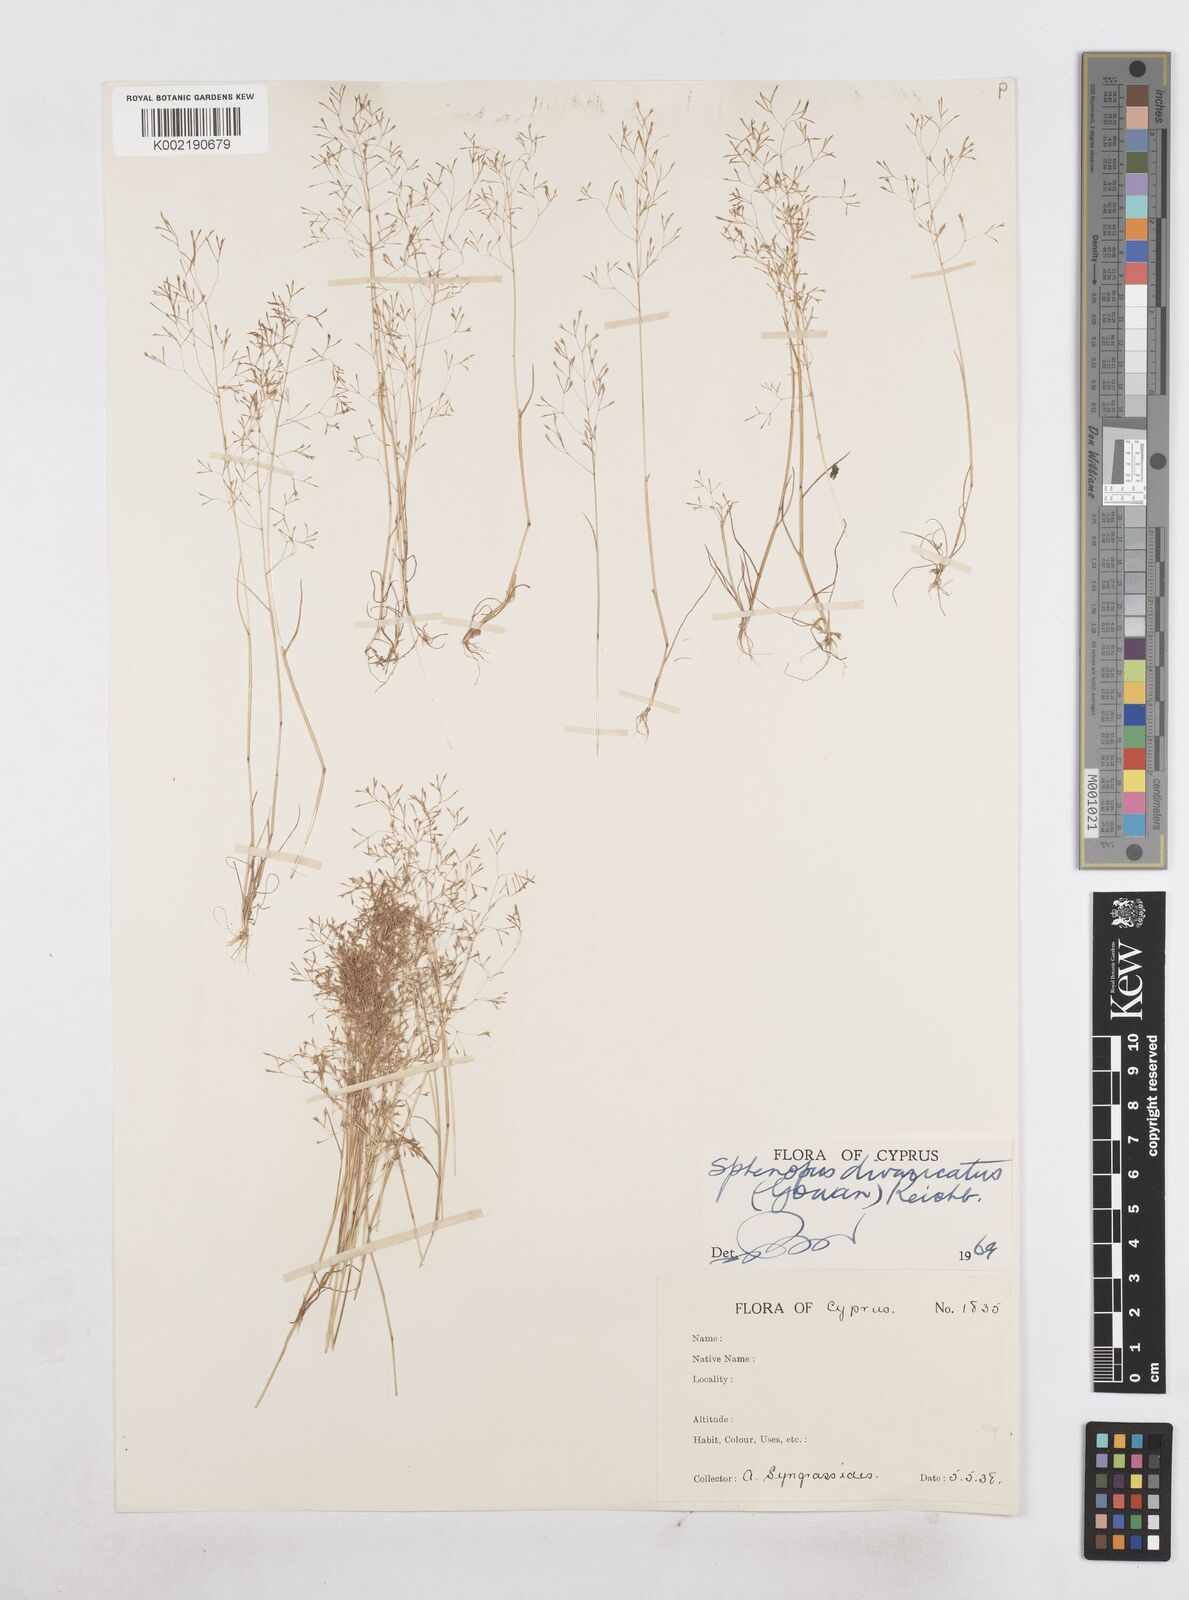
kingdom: Plantae
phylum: Tracheophyta
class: Liliopsida
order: Poales
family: Poaceae
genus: Sphenopus
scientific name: Sphenopus divaricatus
